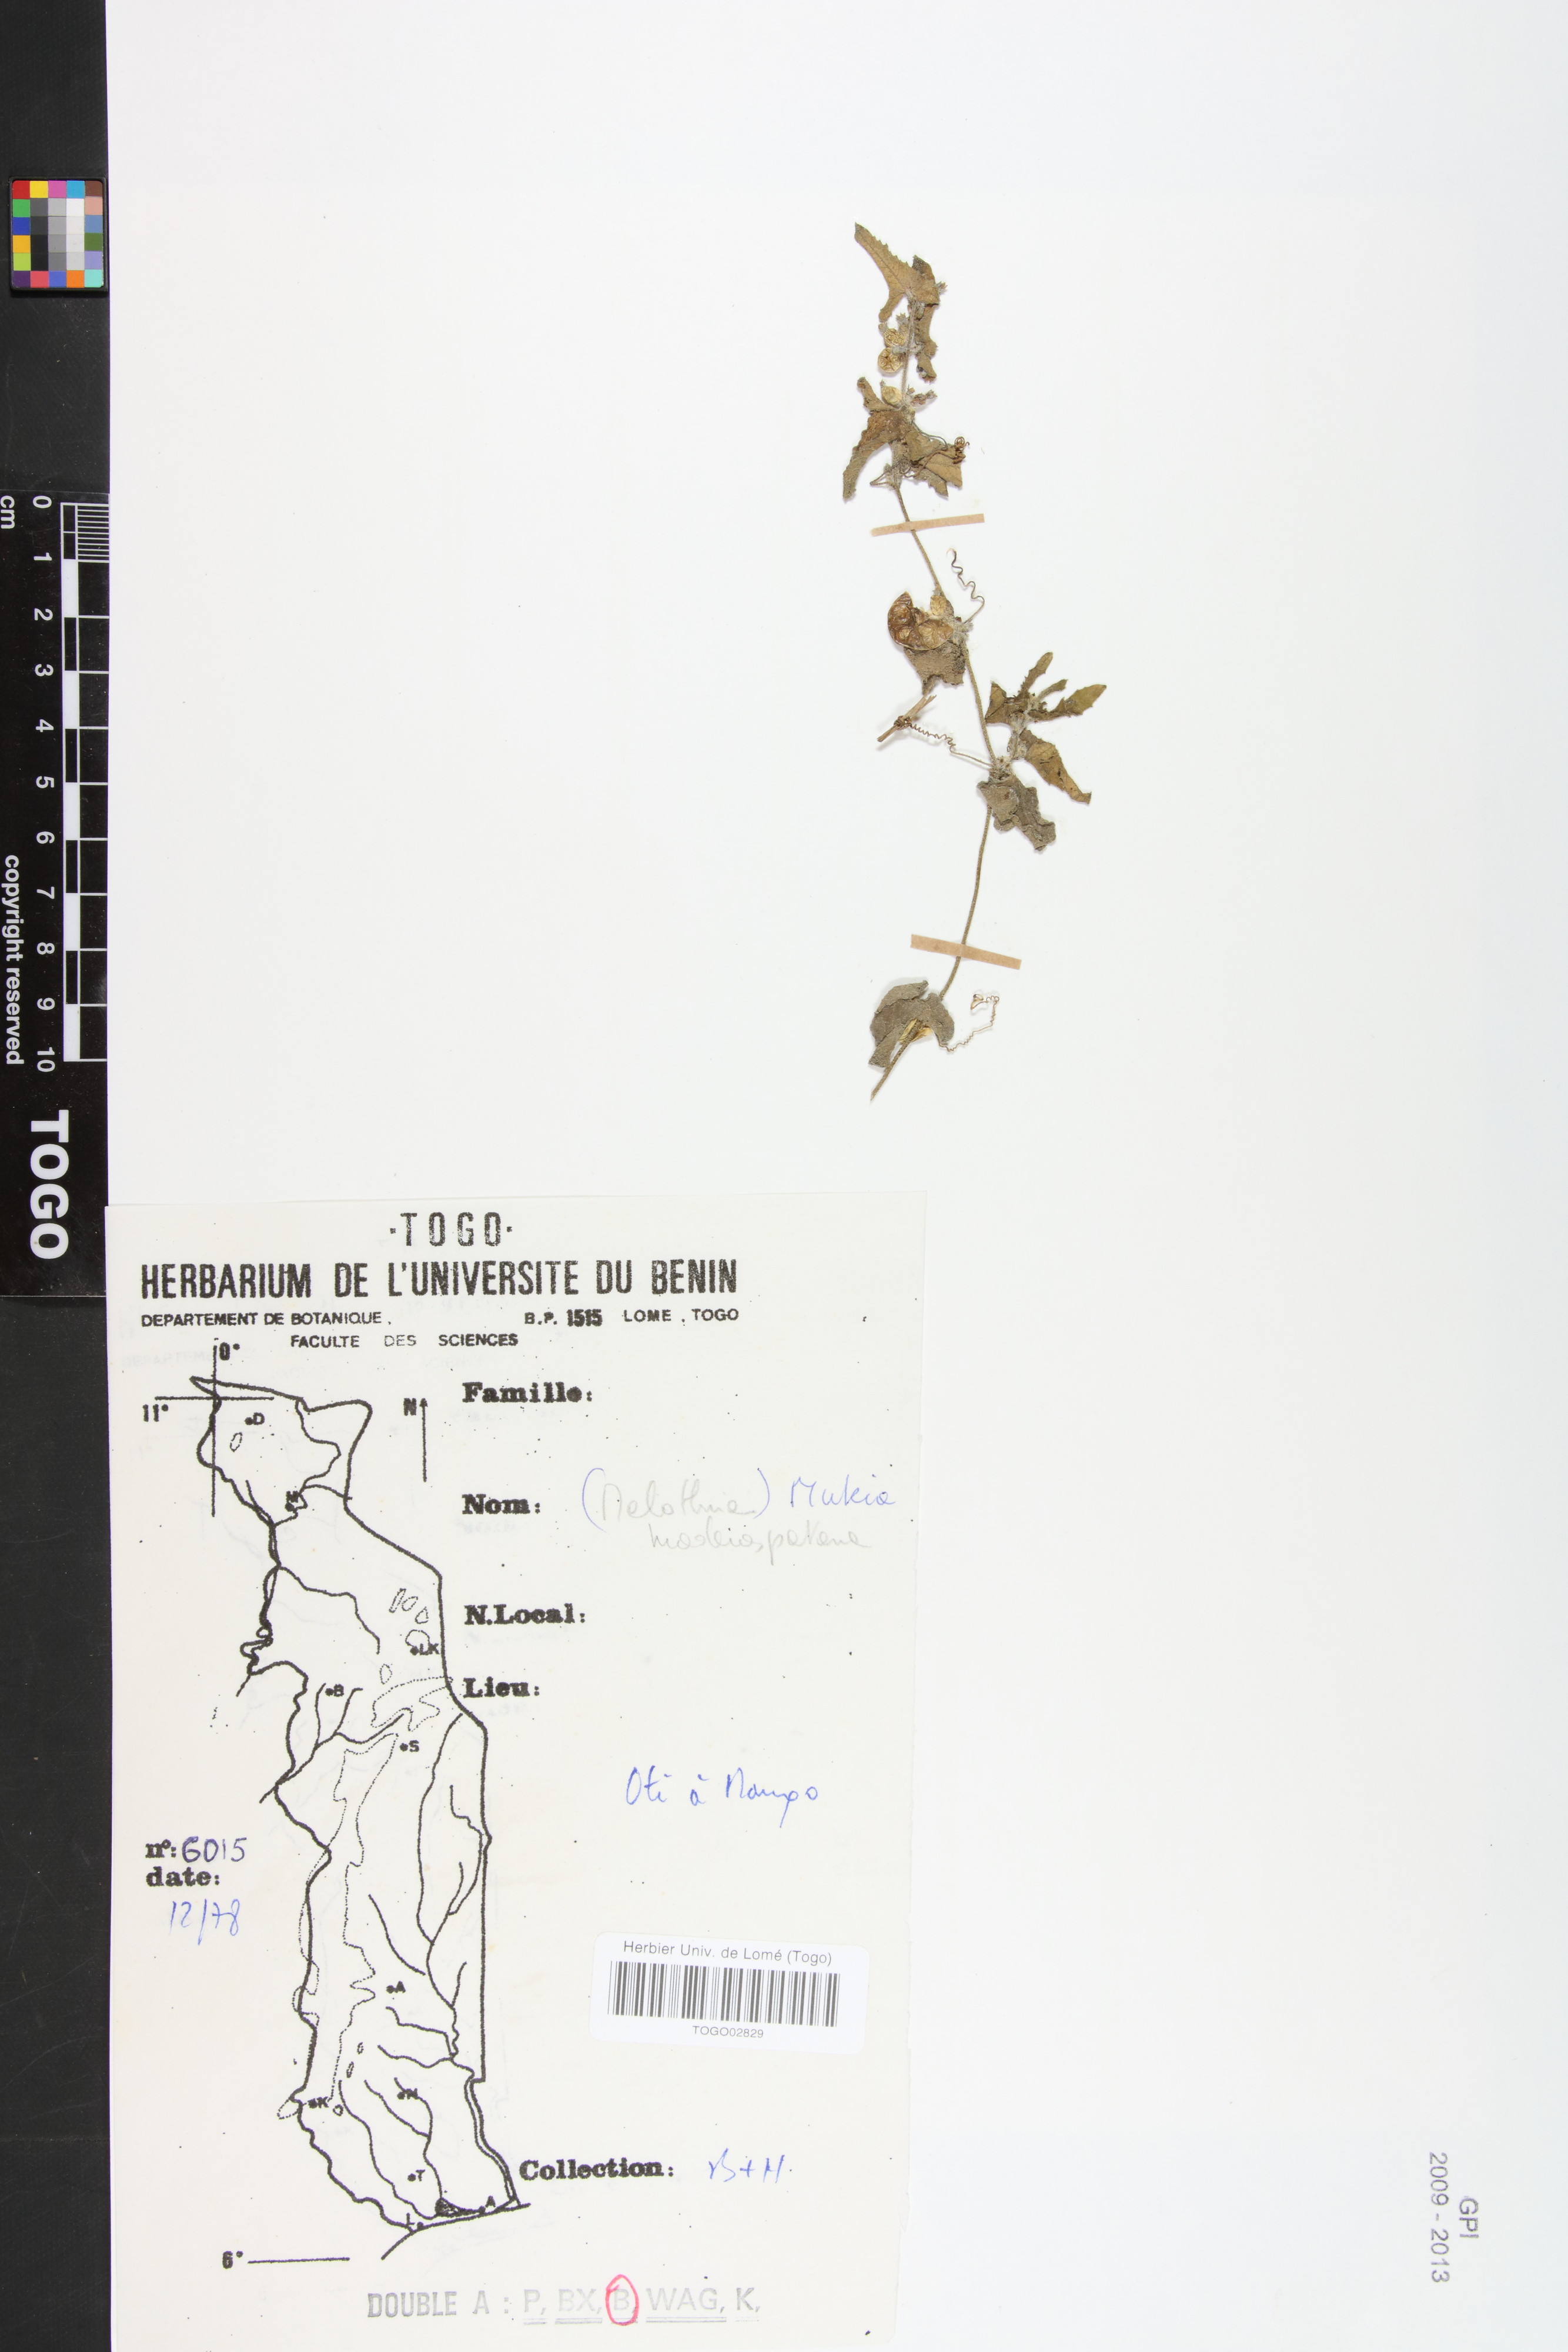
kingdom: Plantae
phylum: Tracheophyta
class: Magnoliopsida
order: Cucurbitales
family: Cucurbitaceae
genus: Cucumis
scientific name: Cucumis maderaspatanus
